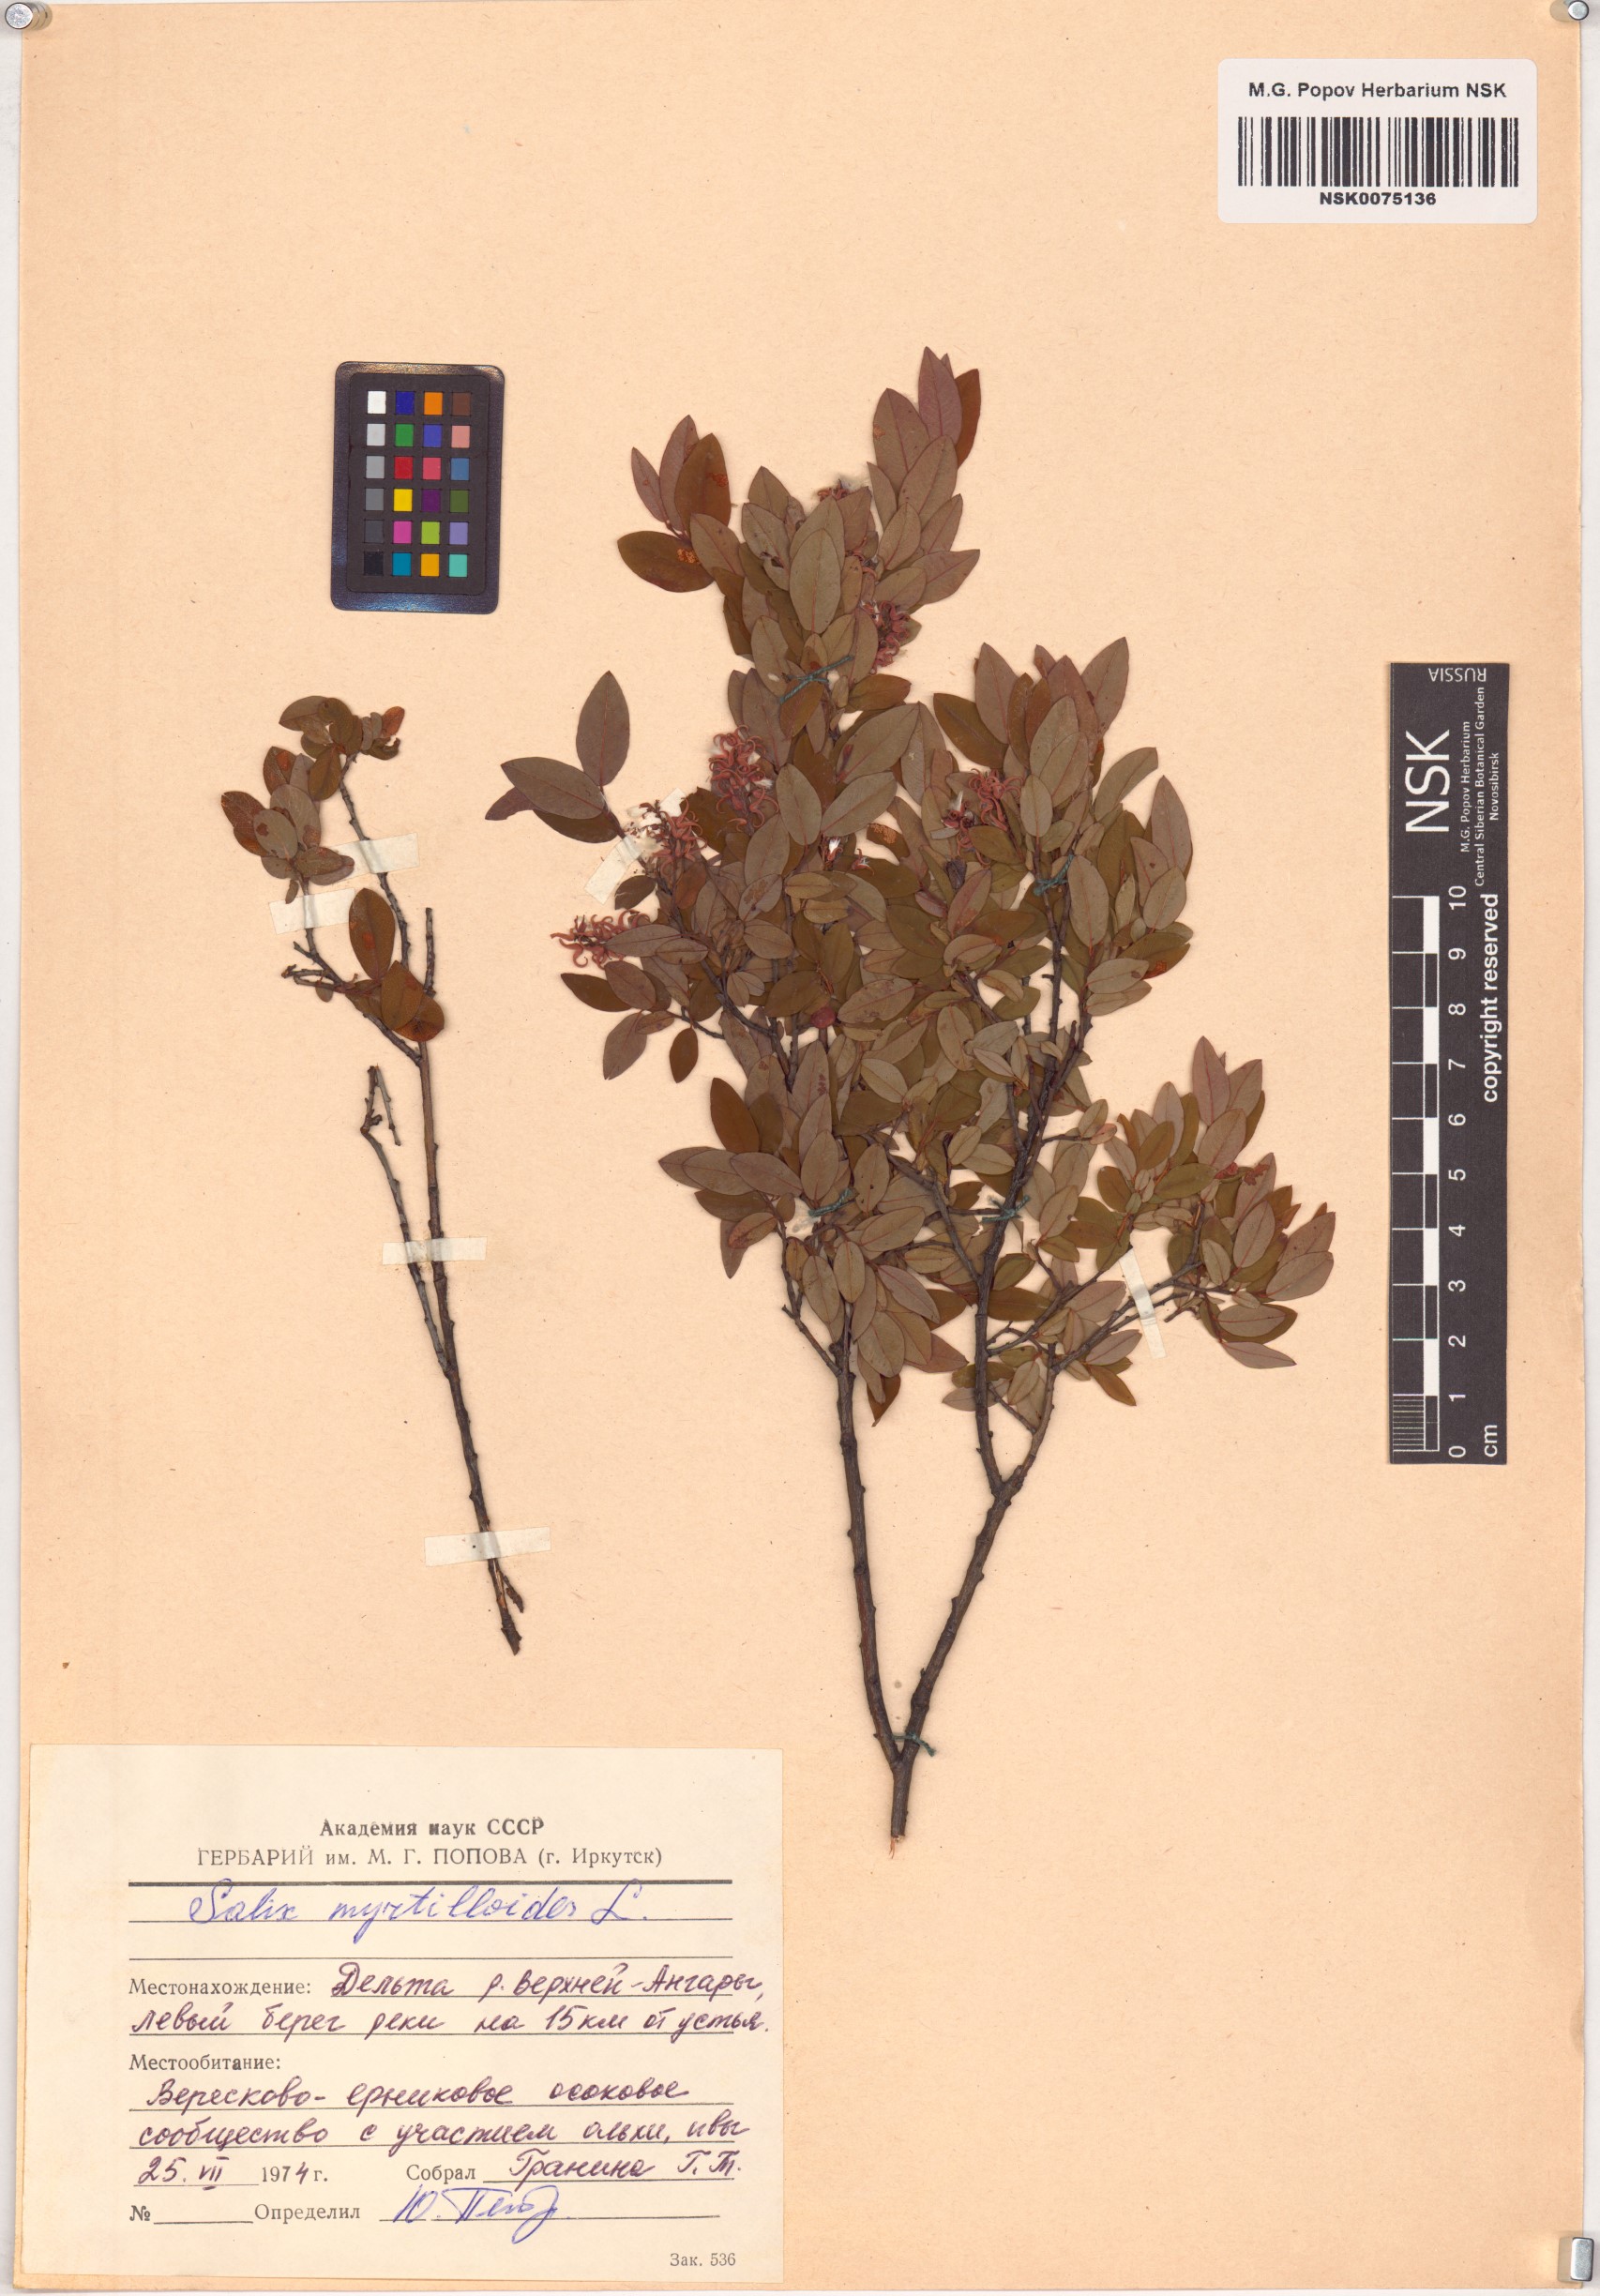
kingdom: Plantae
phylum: Tracheophyta
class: Magnoliopsida
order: Malpighiales
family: Salicaceae
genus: Salix
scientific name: Salix myrtilloides
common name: Myrtle-leaved willow
